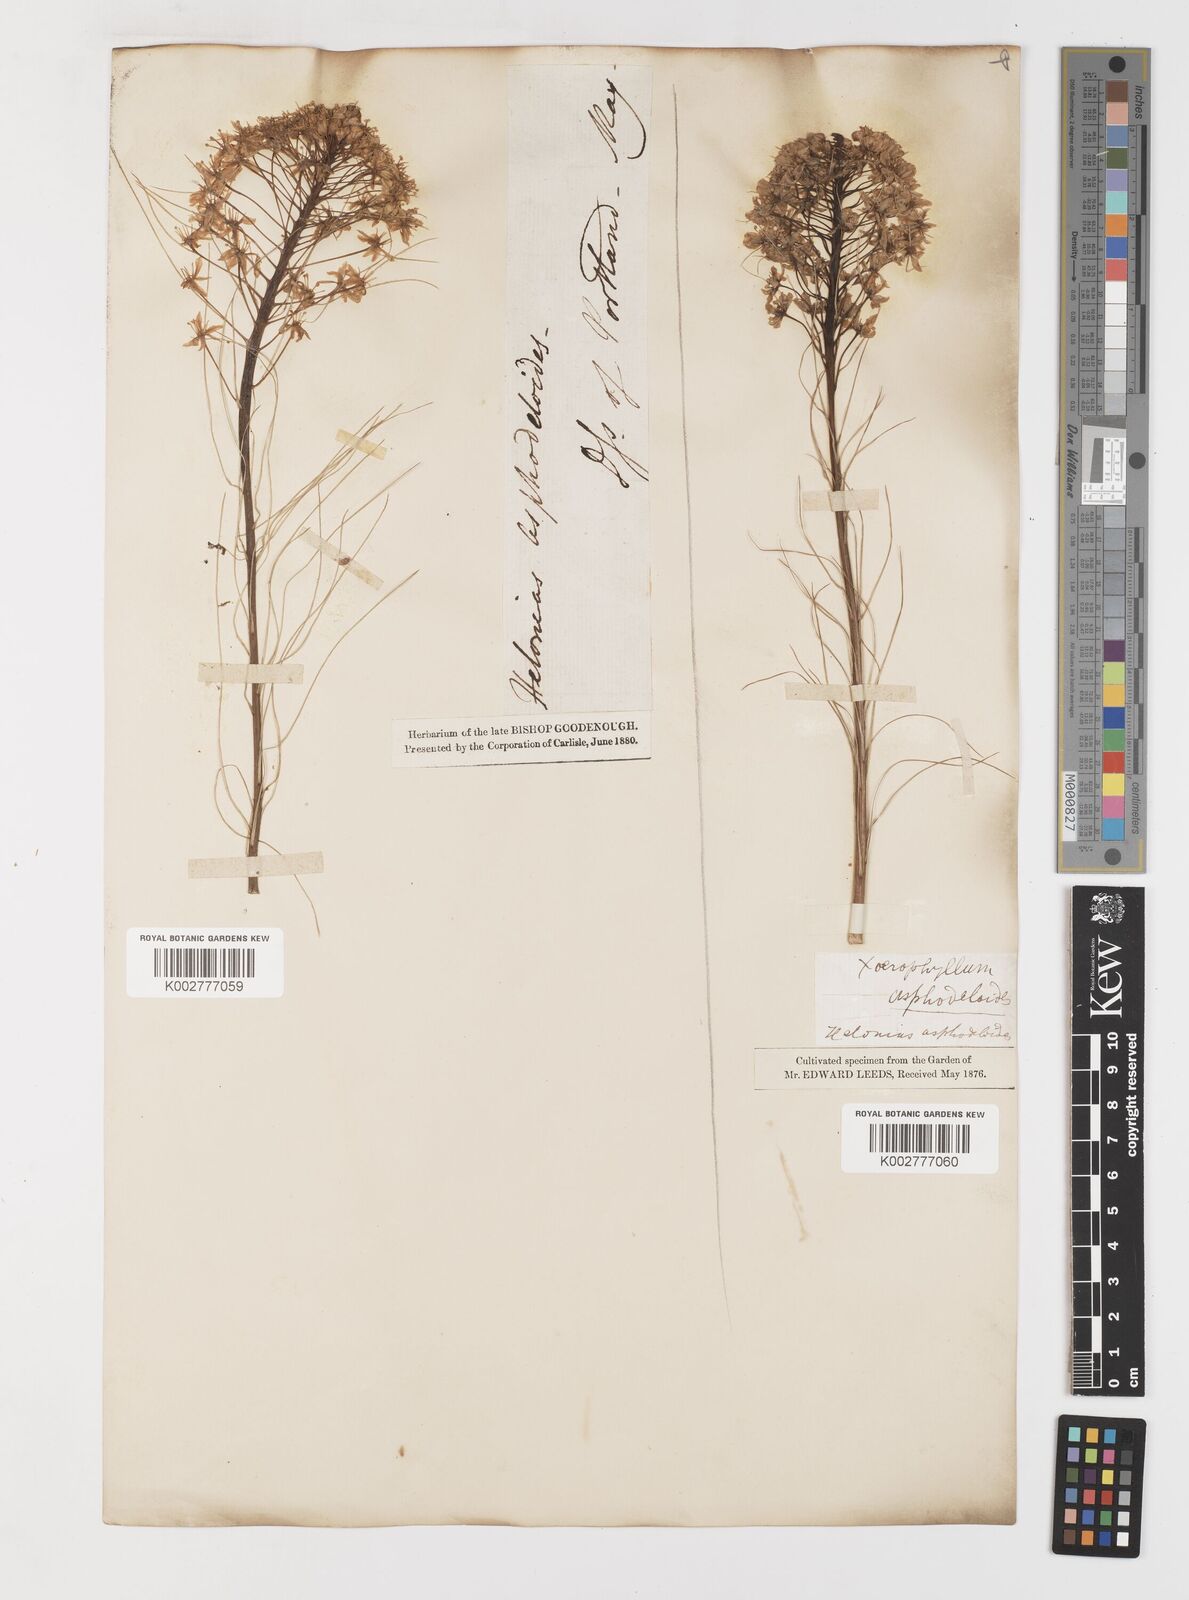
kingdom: Plantae
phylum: Tracheophyta
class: Liliopsida
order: Liliales
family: Melanthiaceae
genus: Xerophyllum
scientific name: Xerophyllum asphodeloides
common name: Mountain-asphodel
